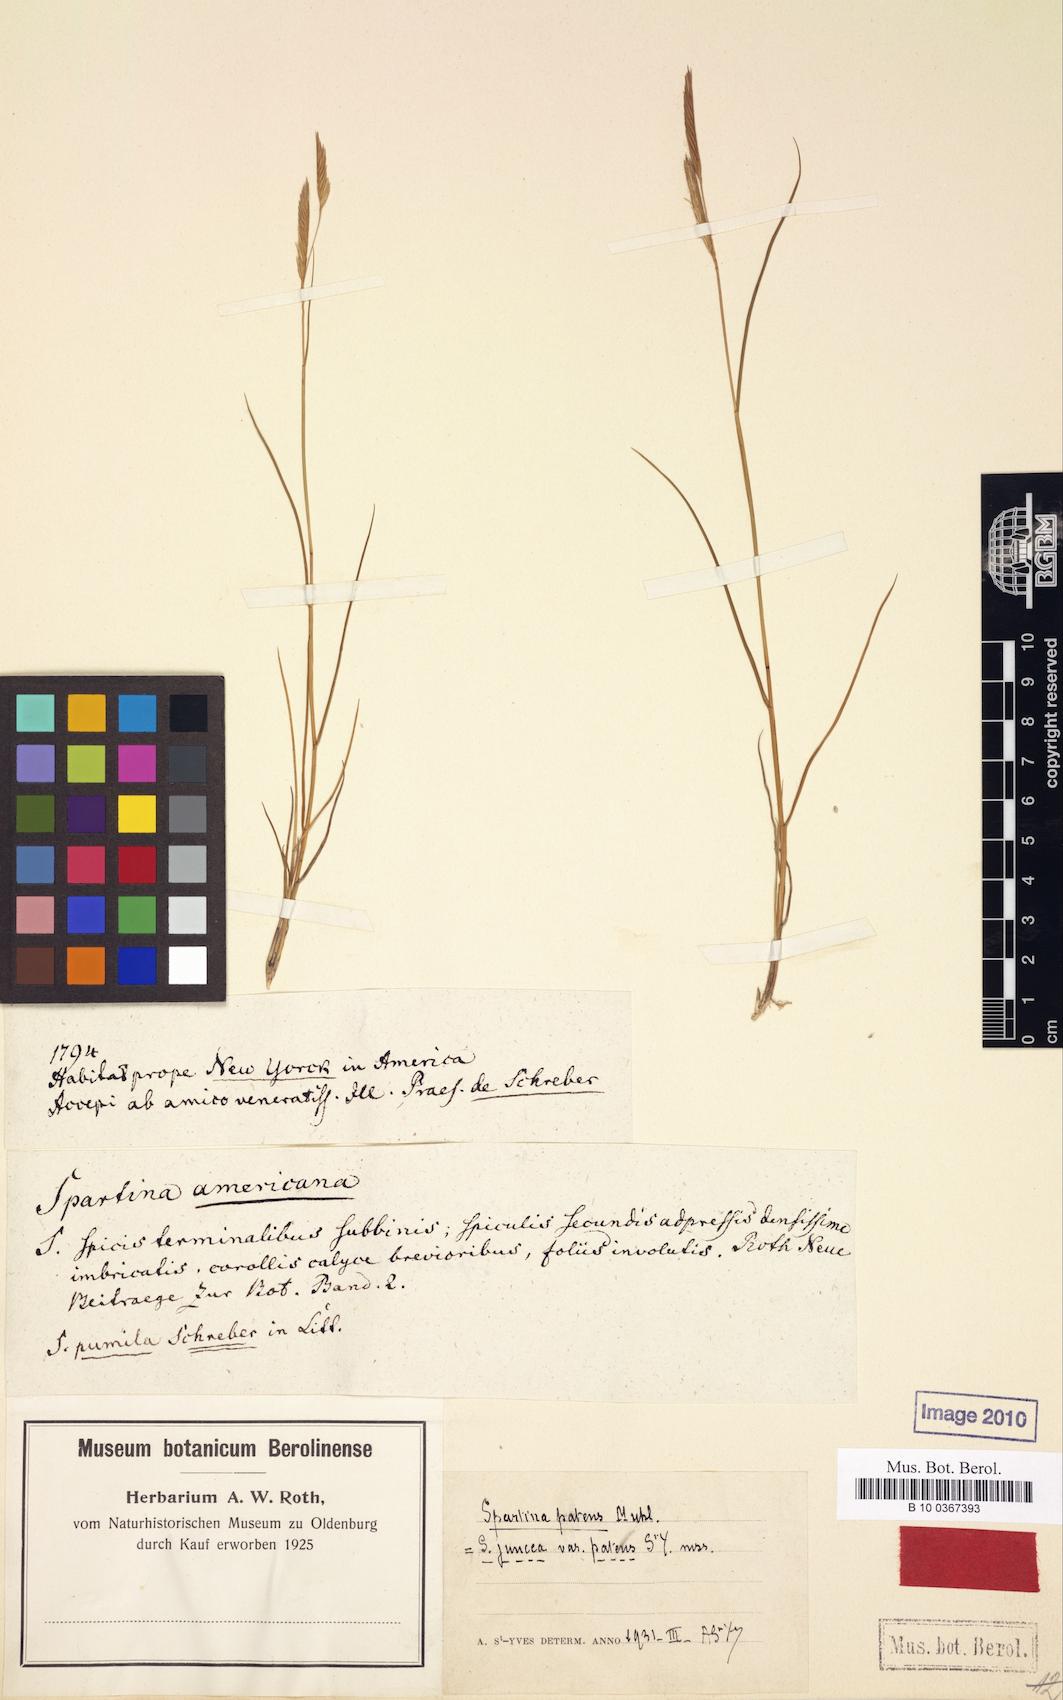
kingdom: Plantae
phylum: Tracheophyta
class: Liliopsida
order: Poales
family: Poaceae
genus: Sporobolus
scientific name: Sporobolus pumilus
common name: Highwater grass
